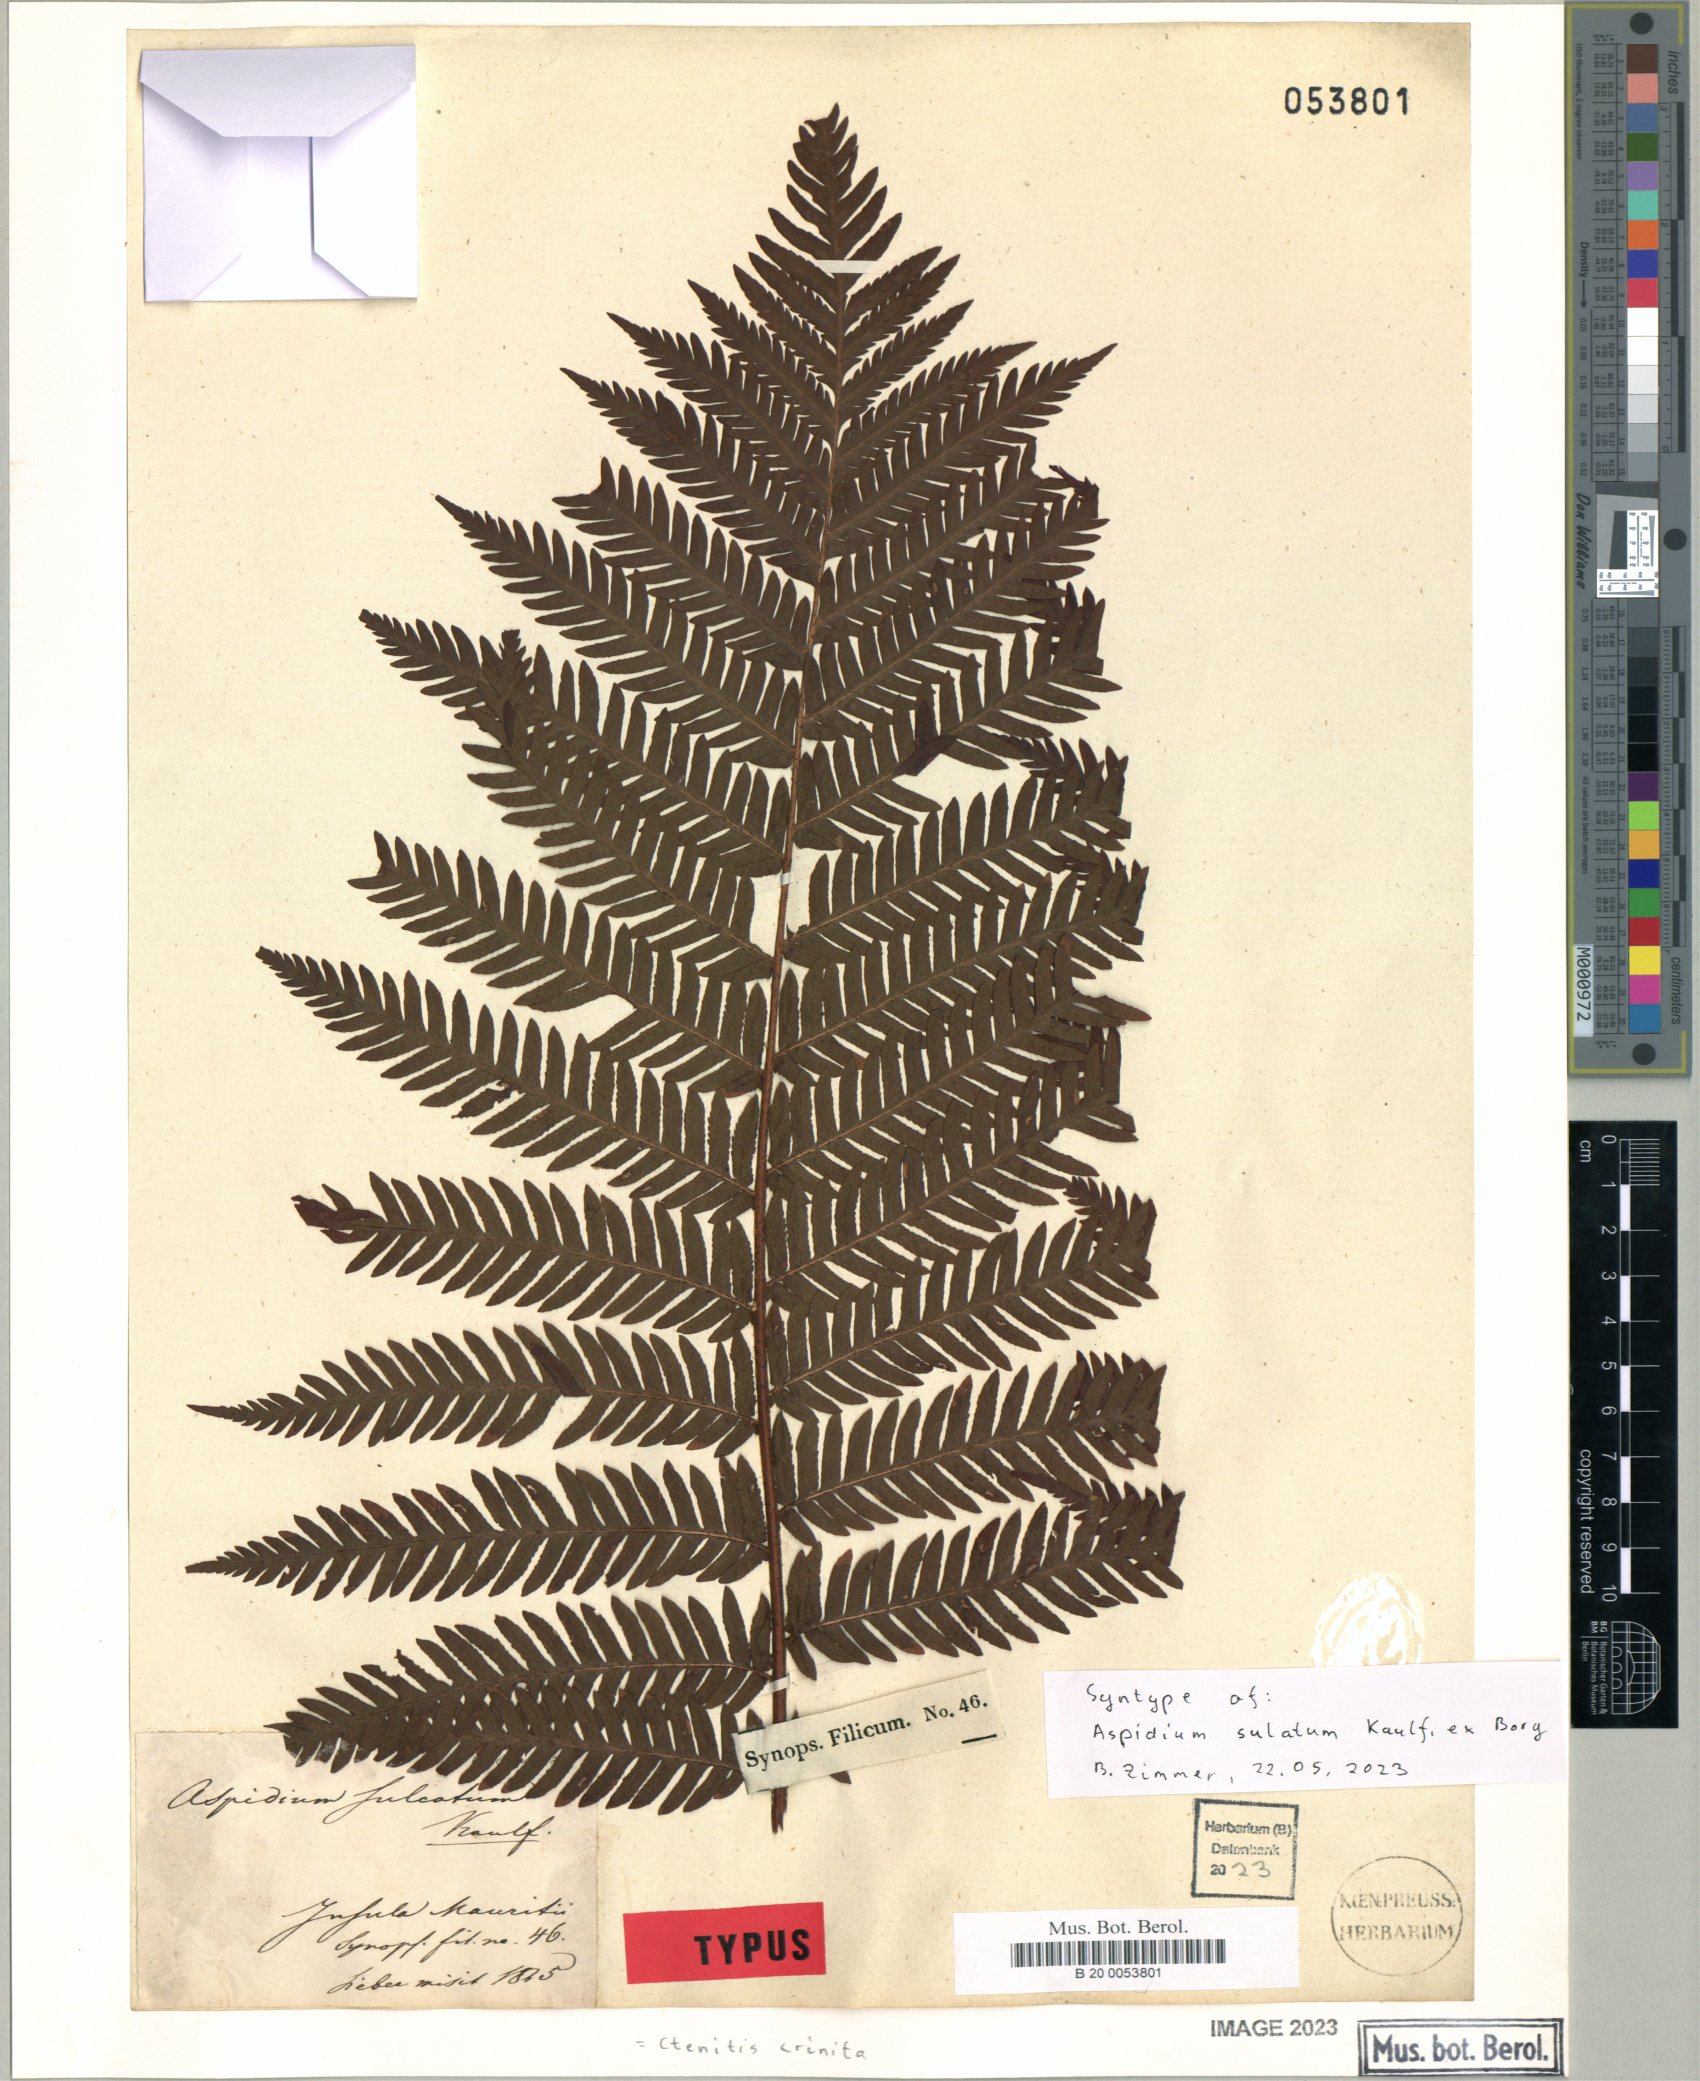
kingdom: Plantae
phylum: Tracheophyta
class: Polypodiopsida
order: Polypodiales
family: Dryopteridaceae
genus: Ctenitis
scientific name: Ctenitis crinita
